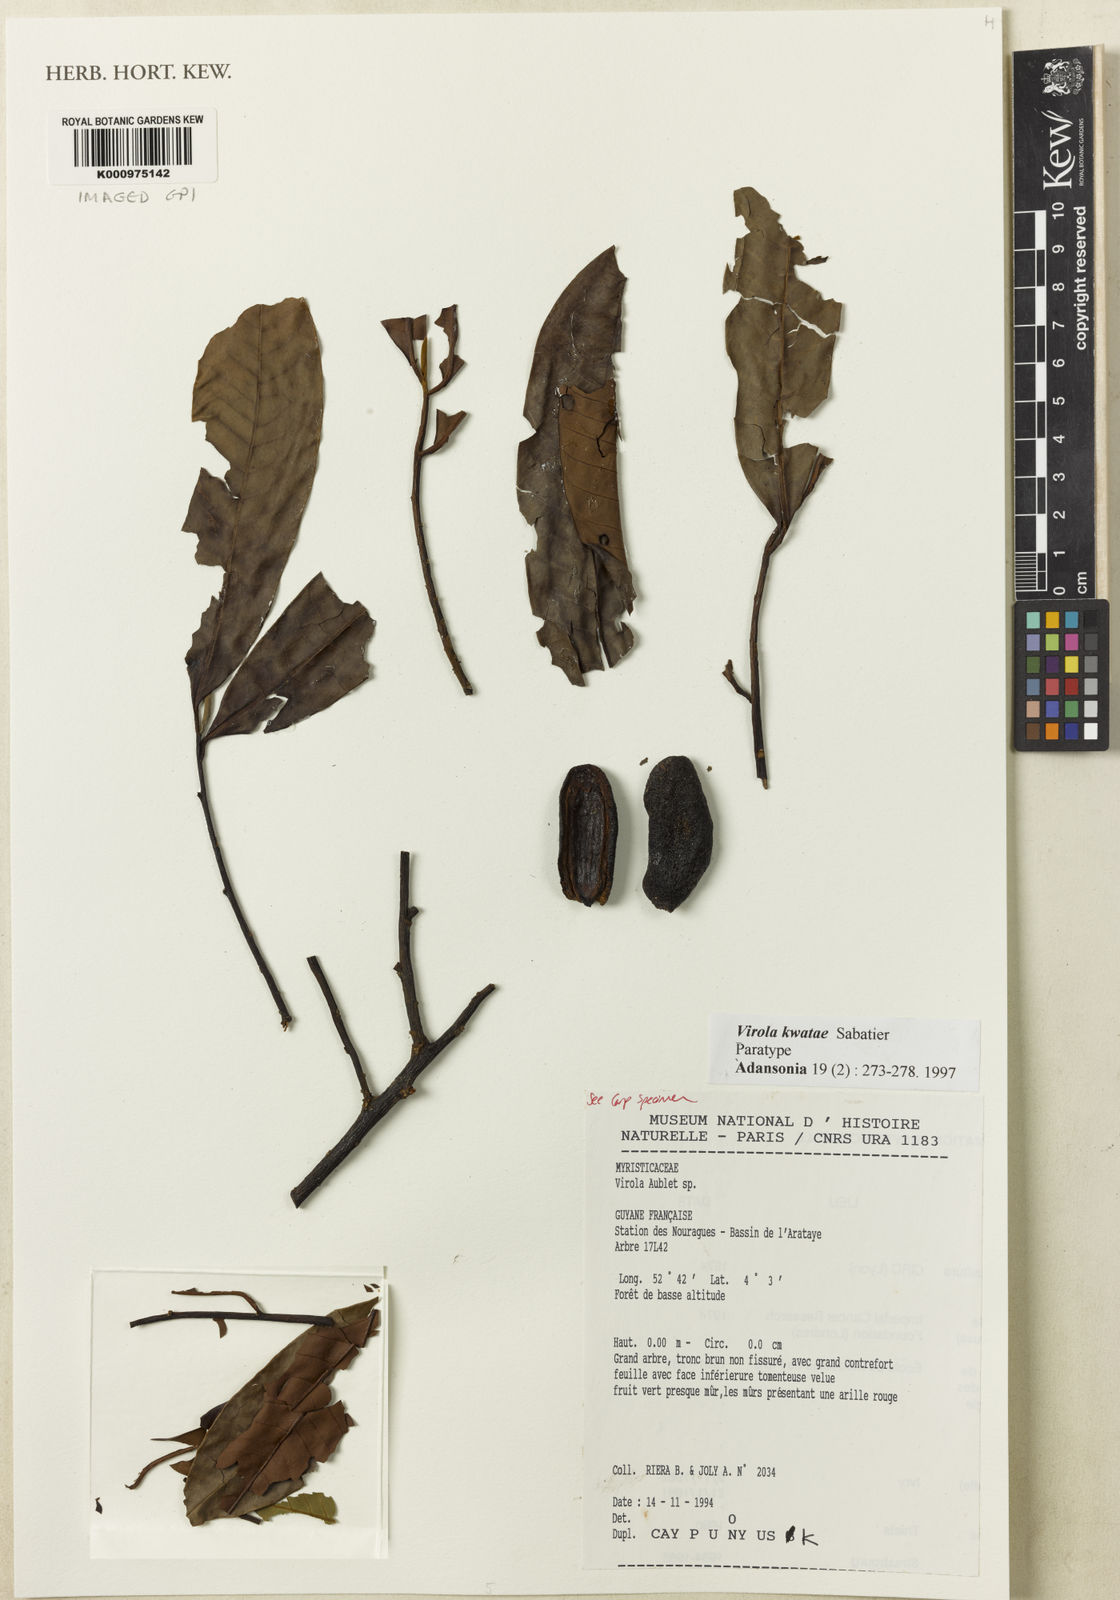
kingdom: Plantae
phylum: Tracheophyta
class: Magnoliopsida
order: Magnoliales
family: Myristicaceae
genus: Virola
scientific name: Virola kwatae
